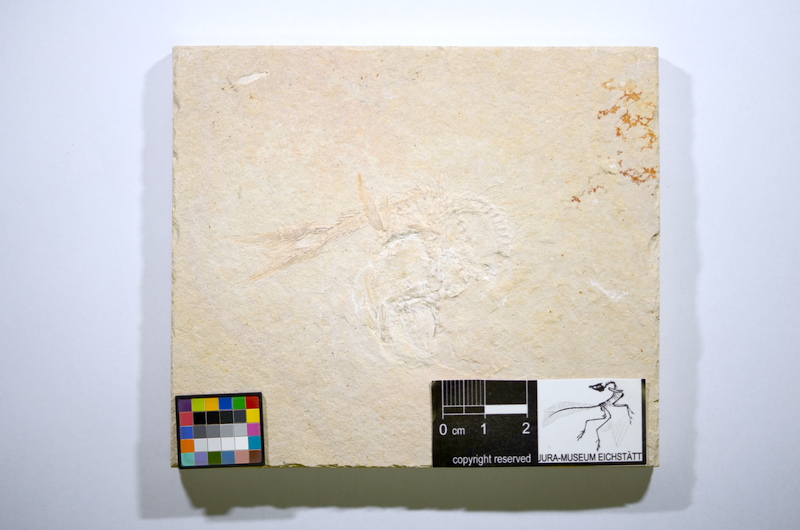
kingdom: Animalia
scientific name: Animalia
